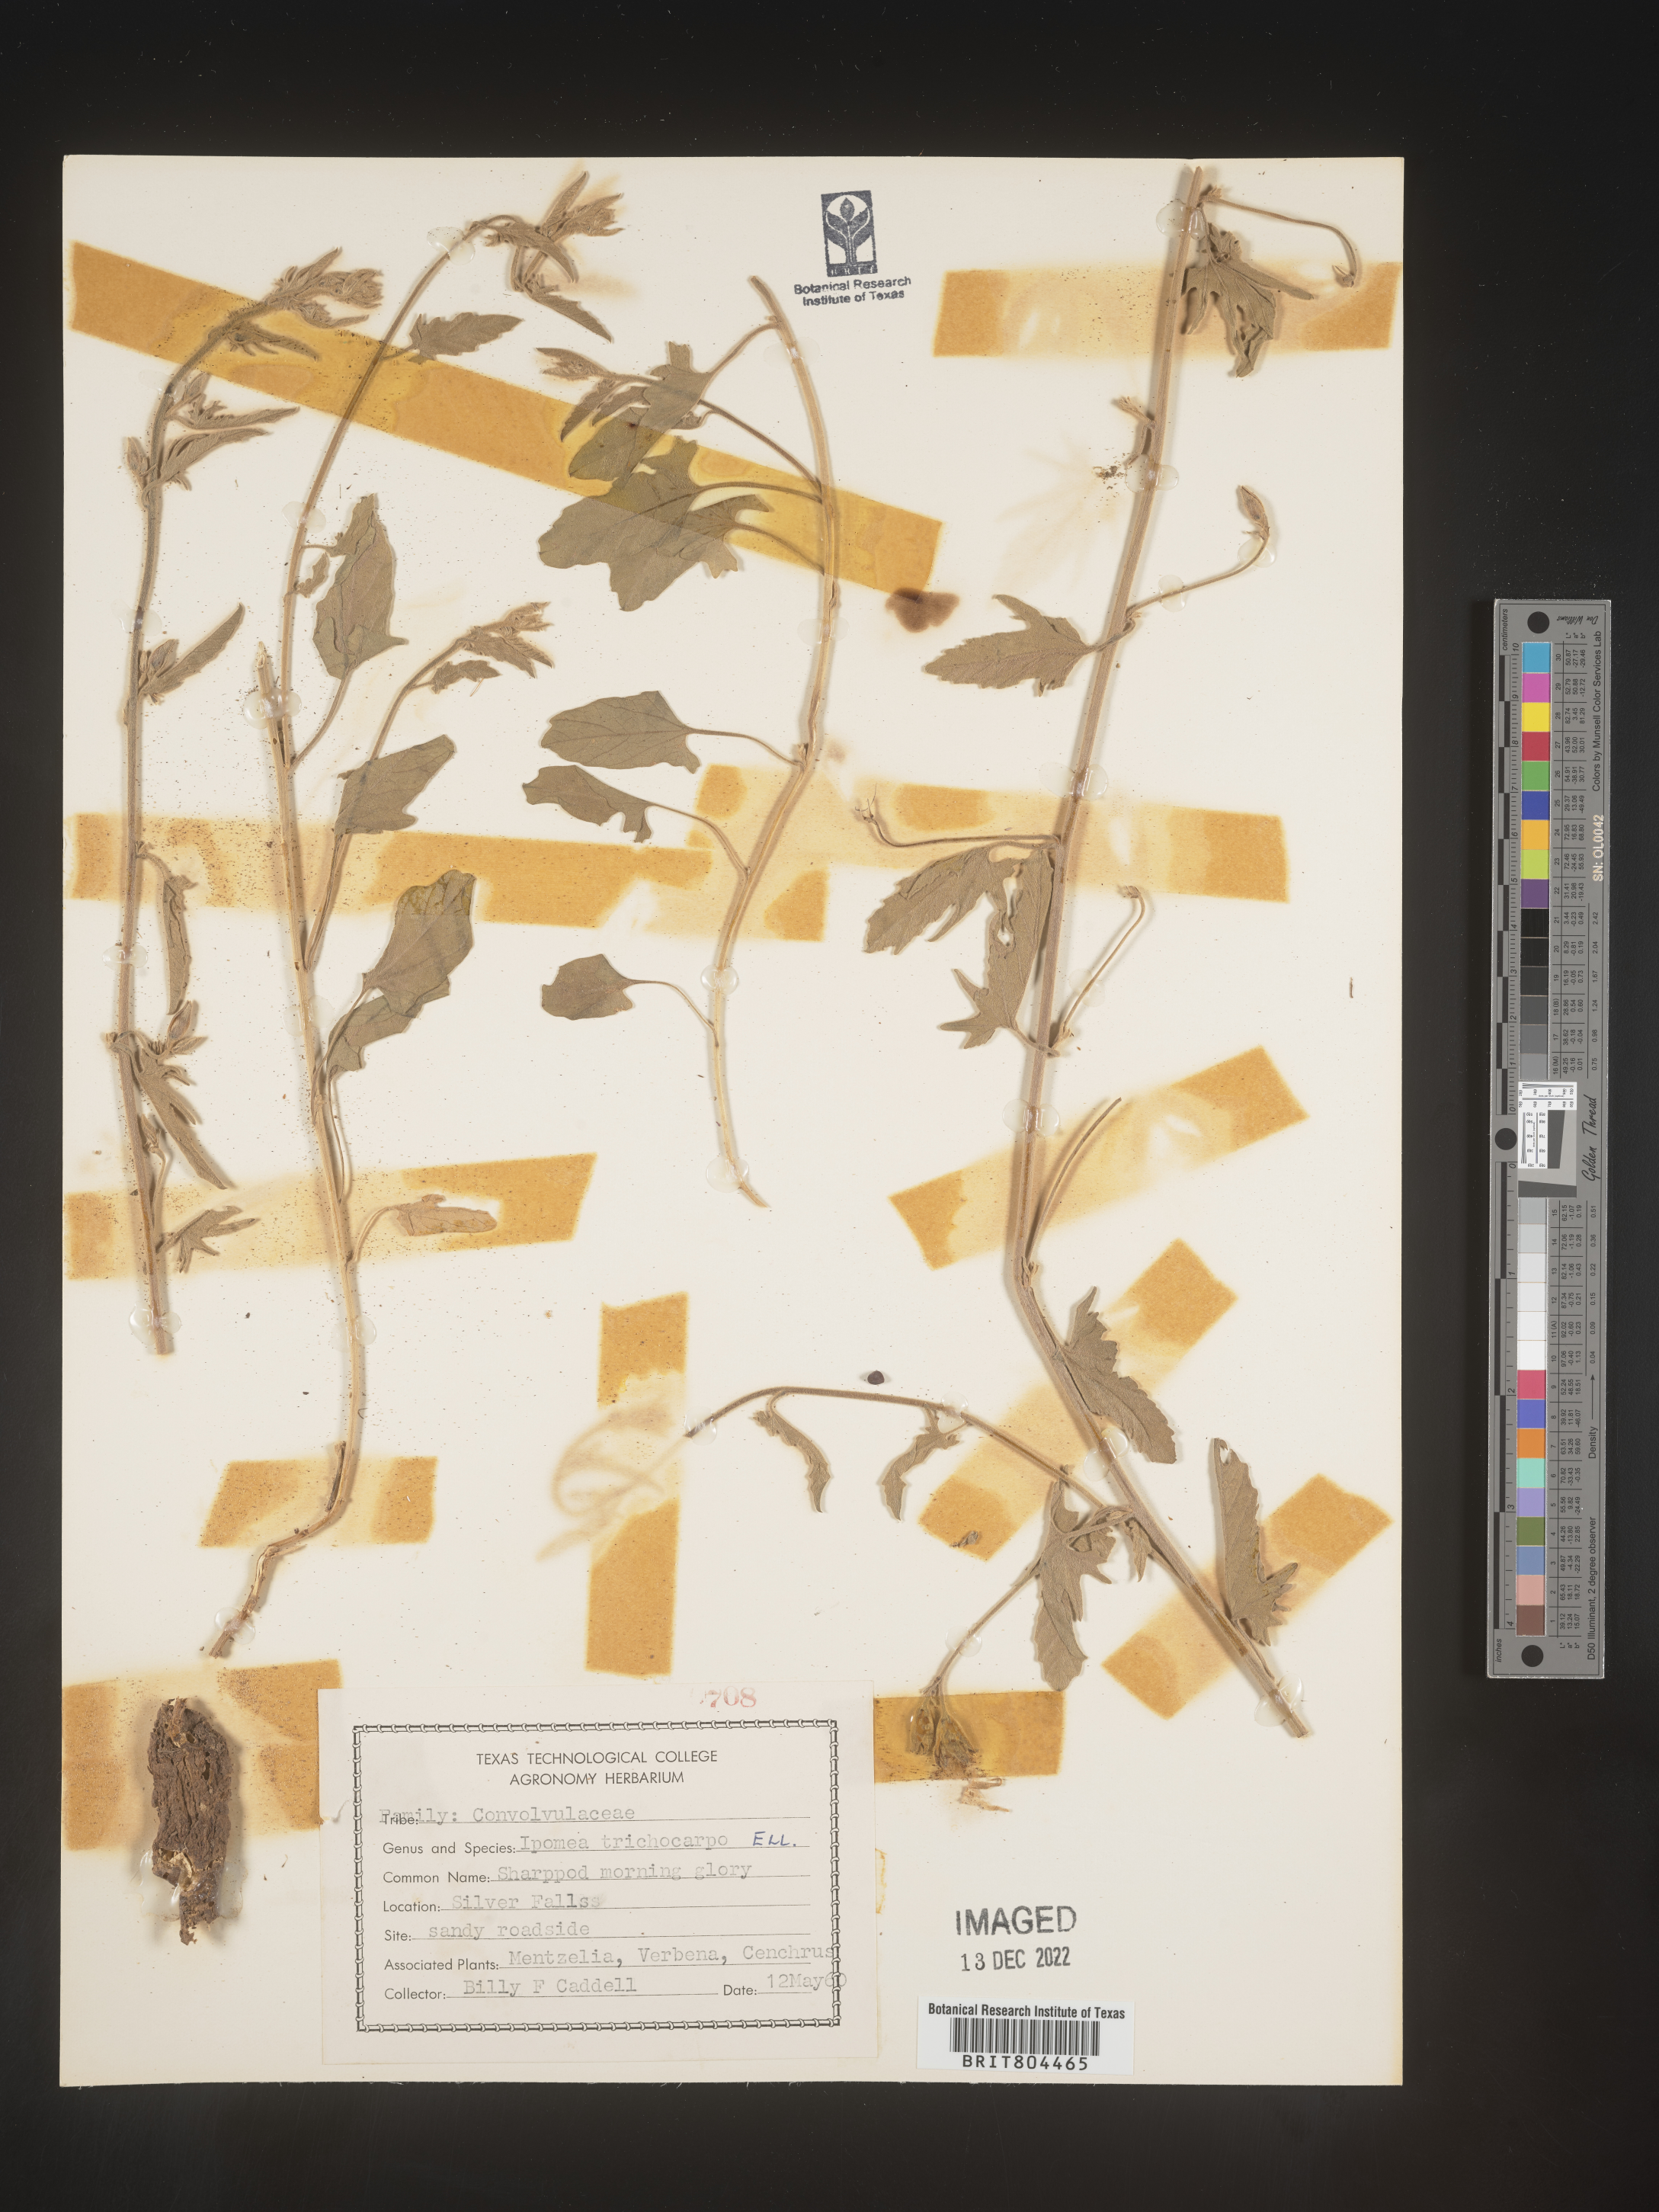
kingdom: Plantae
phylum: Tracheophyta
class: Magnoliopsida
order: Solanales
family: Convolvulaceae
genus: Ipomoea
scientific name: Ipomoea cordatotriloba
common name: Cotton morning glory
